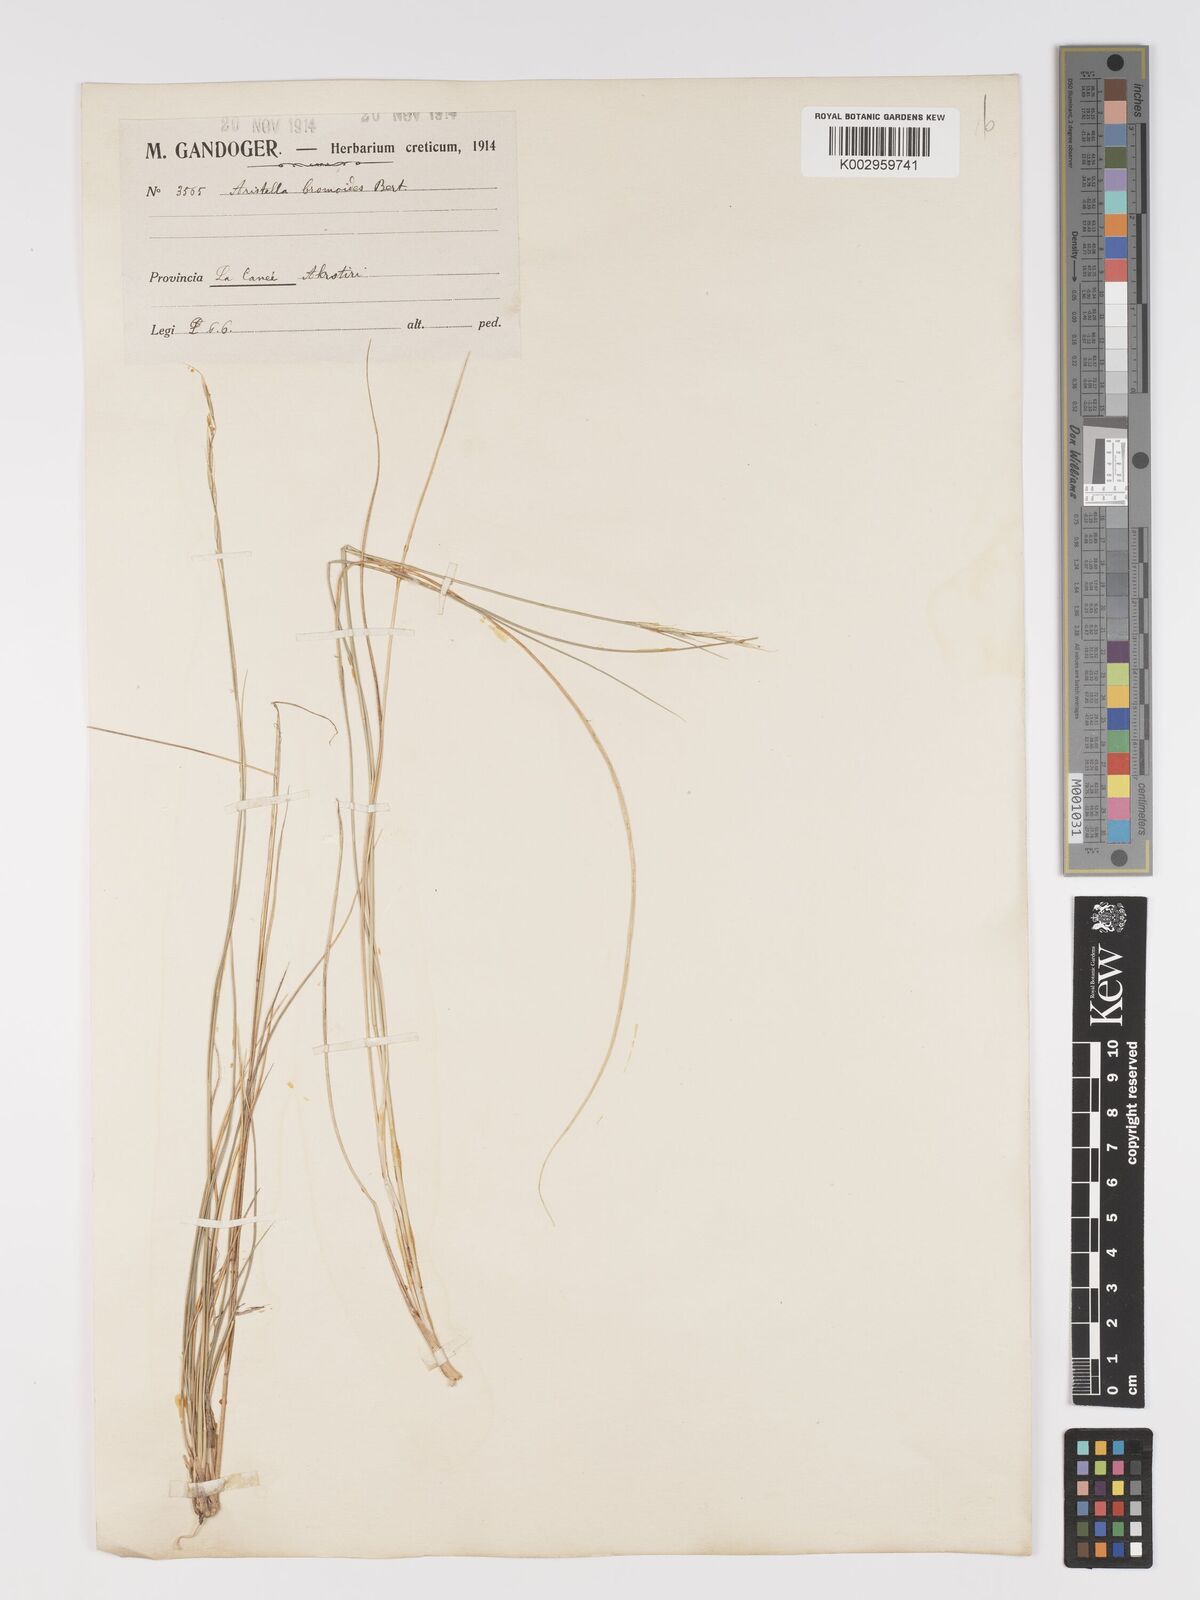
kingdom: Plantae
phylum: Tracheophyta
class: Liliopsida
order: Poales
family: Poaceae
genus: Achnatherum
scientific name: Achnatherum bromoides
